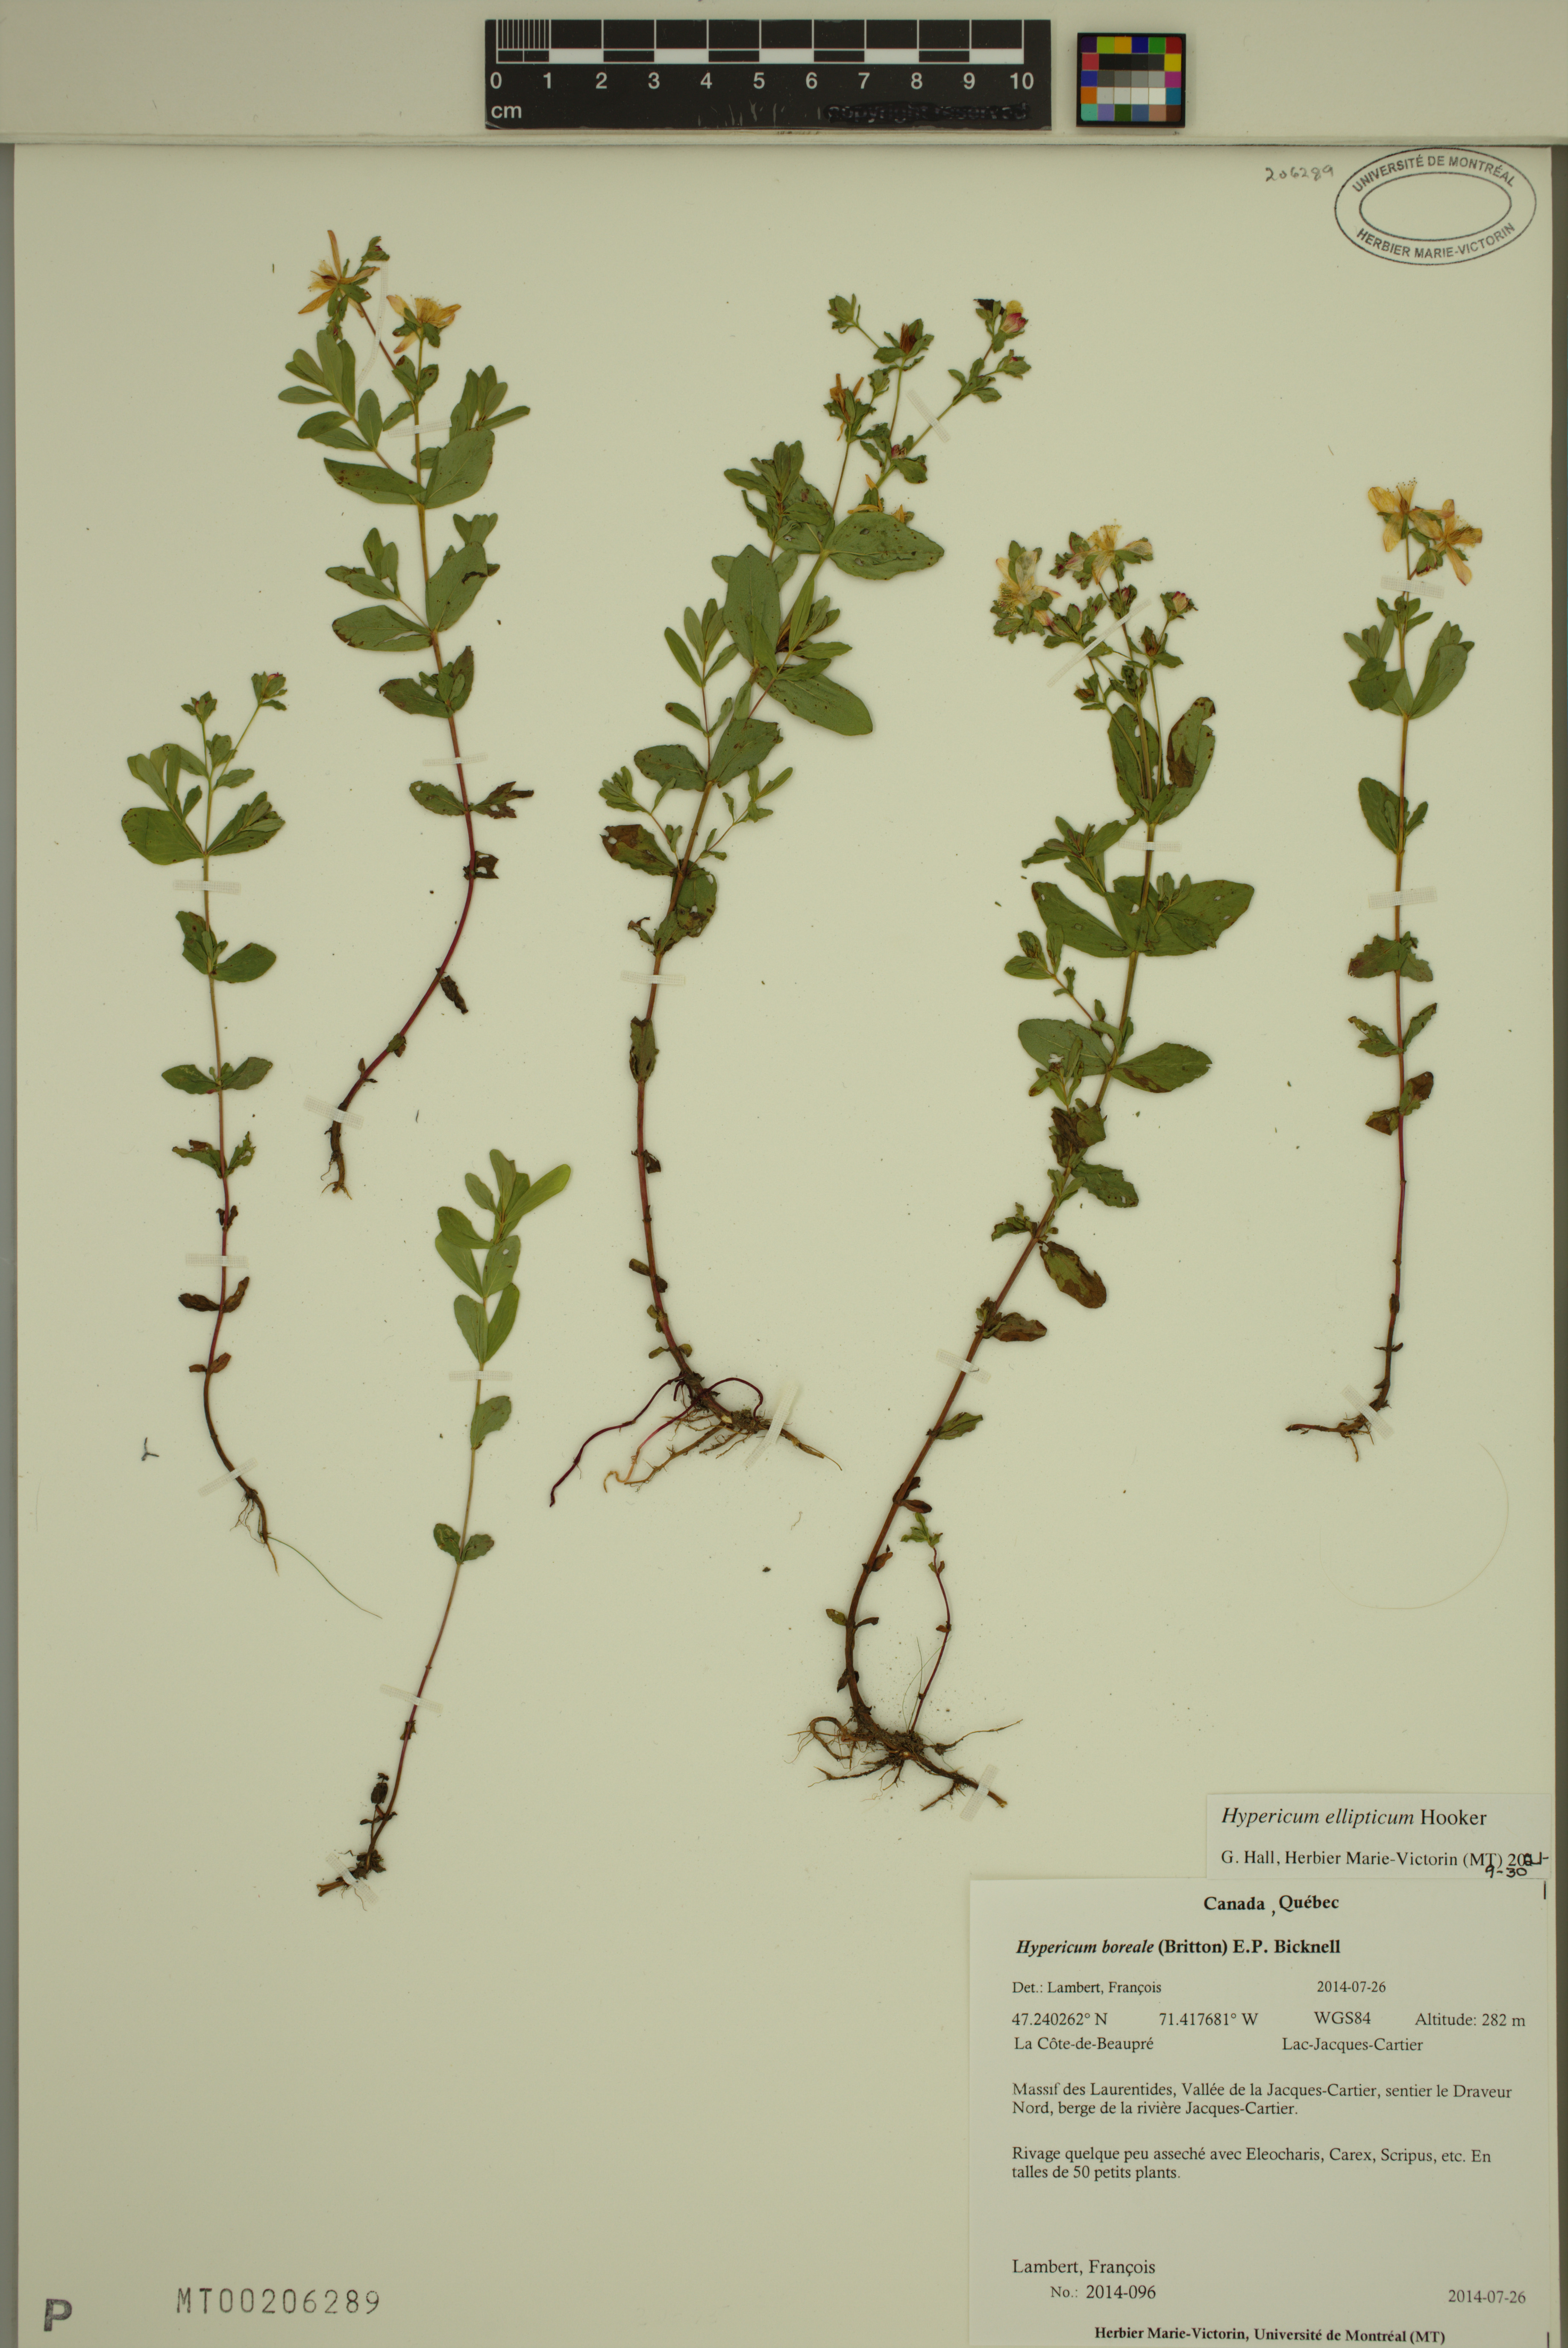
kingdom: Plantae
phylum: Tracheophyta
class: Magnoliopsida
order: Malpighiales
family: Hypericaceae
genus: Hypericum
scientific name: Hypericum boreale
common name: Northern bog st. john's-wort
